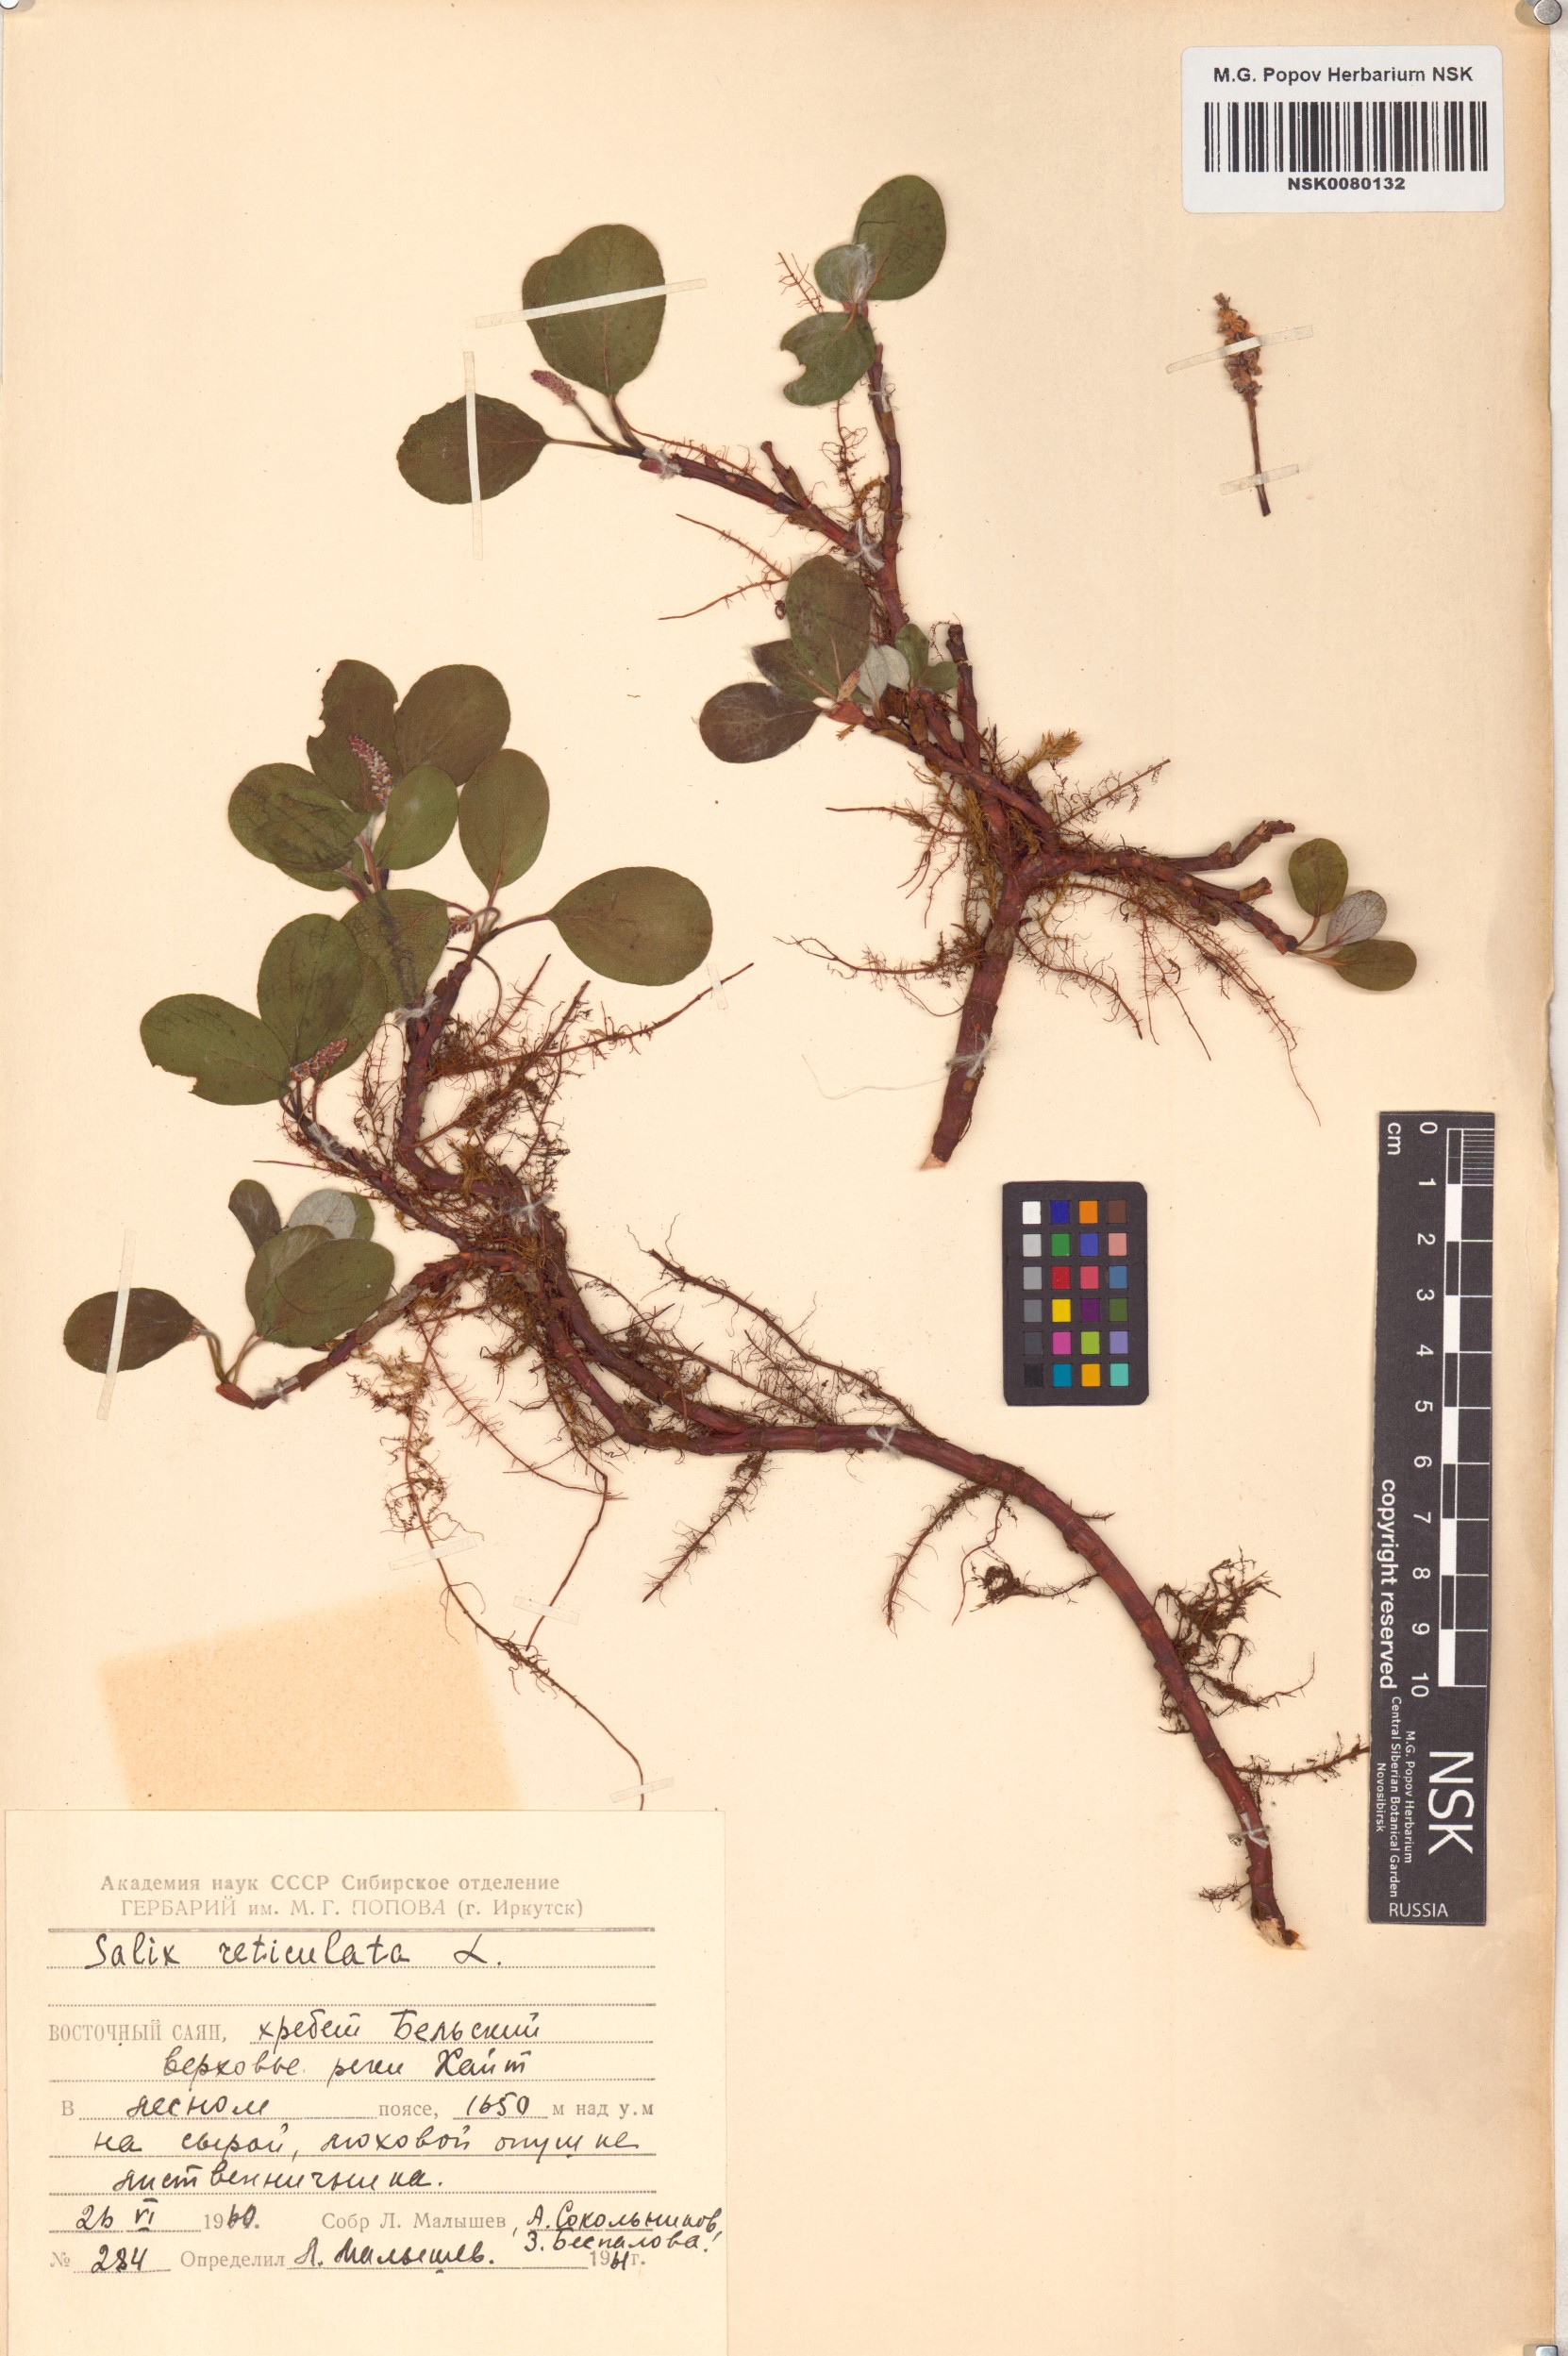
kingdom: Plantae
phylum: Tracheophyta
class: Magnoliopsida
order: Malpighiales
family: Salicaceae
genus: Salix
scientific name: Salix reticulata
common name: Net-leaved willow
